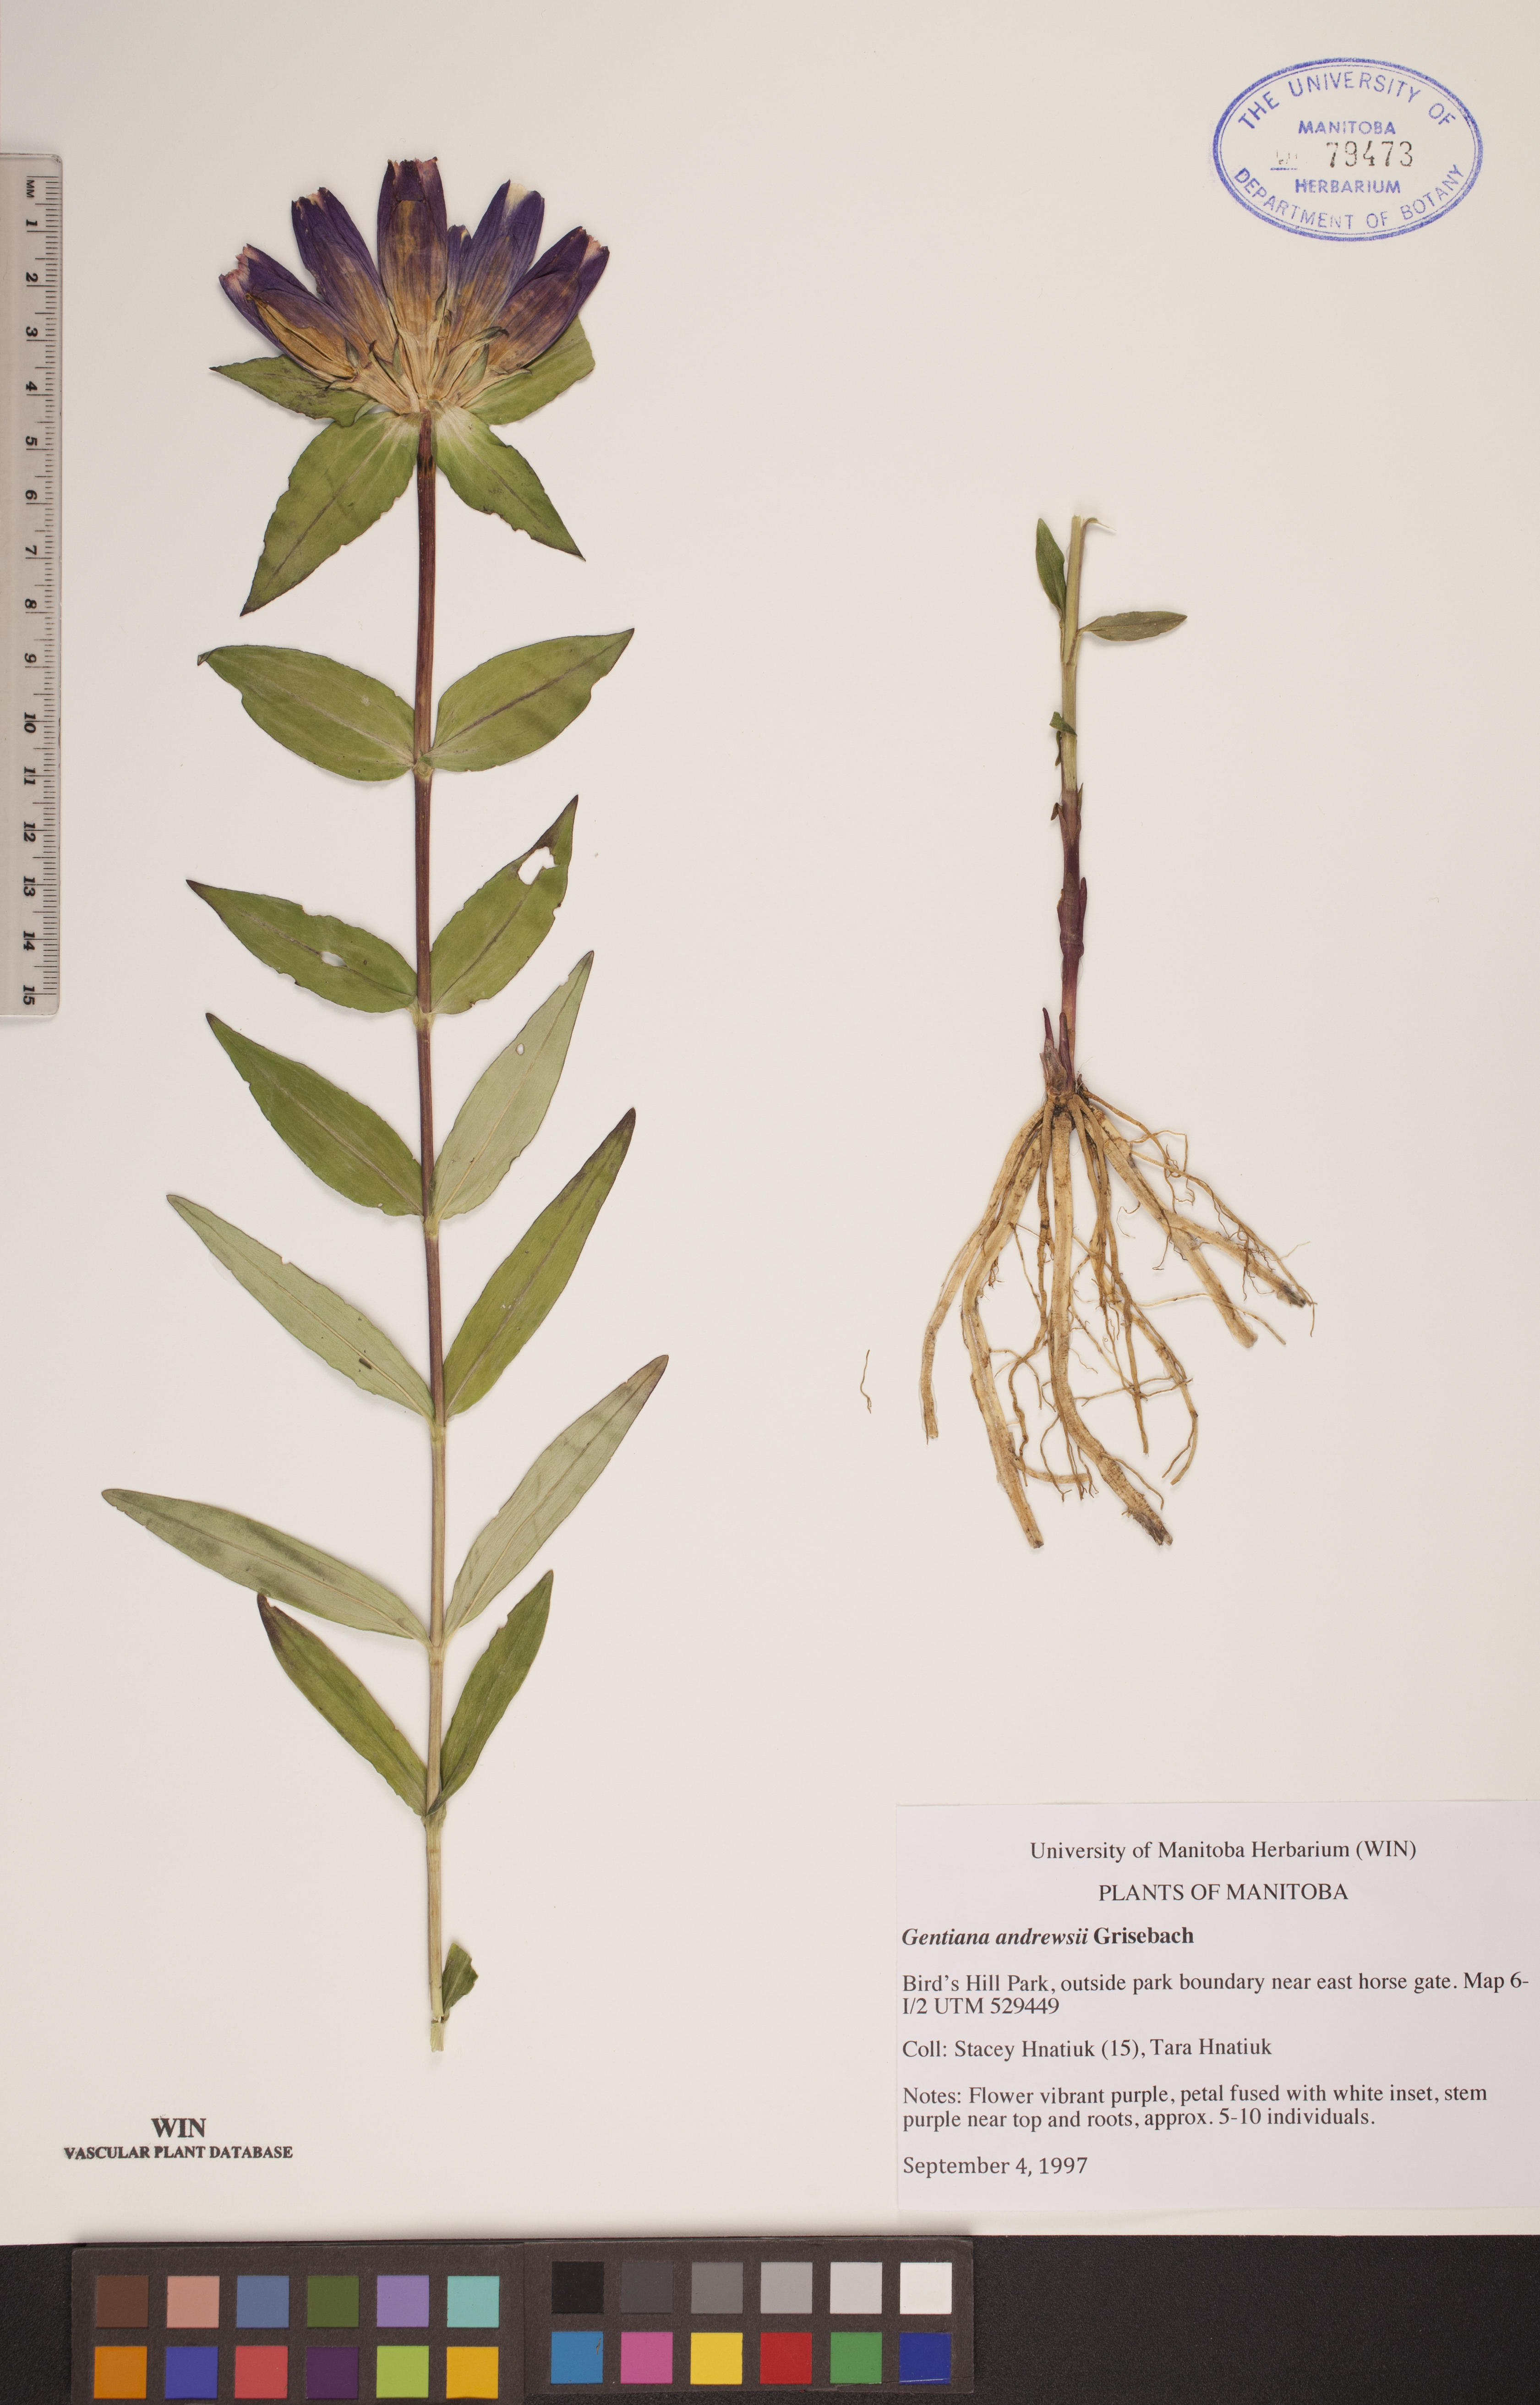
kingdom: Plantae
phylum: Tracheophyta
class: Magnoliopsida
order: Gentianales
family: Gentianaceae
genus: Gentiana
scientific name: Gentiana andrewsii
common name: Bottle gentian
